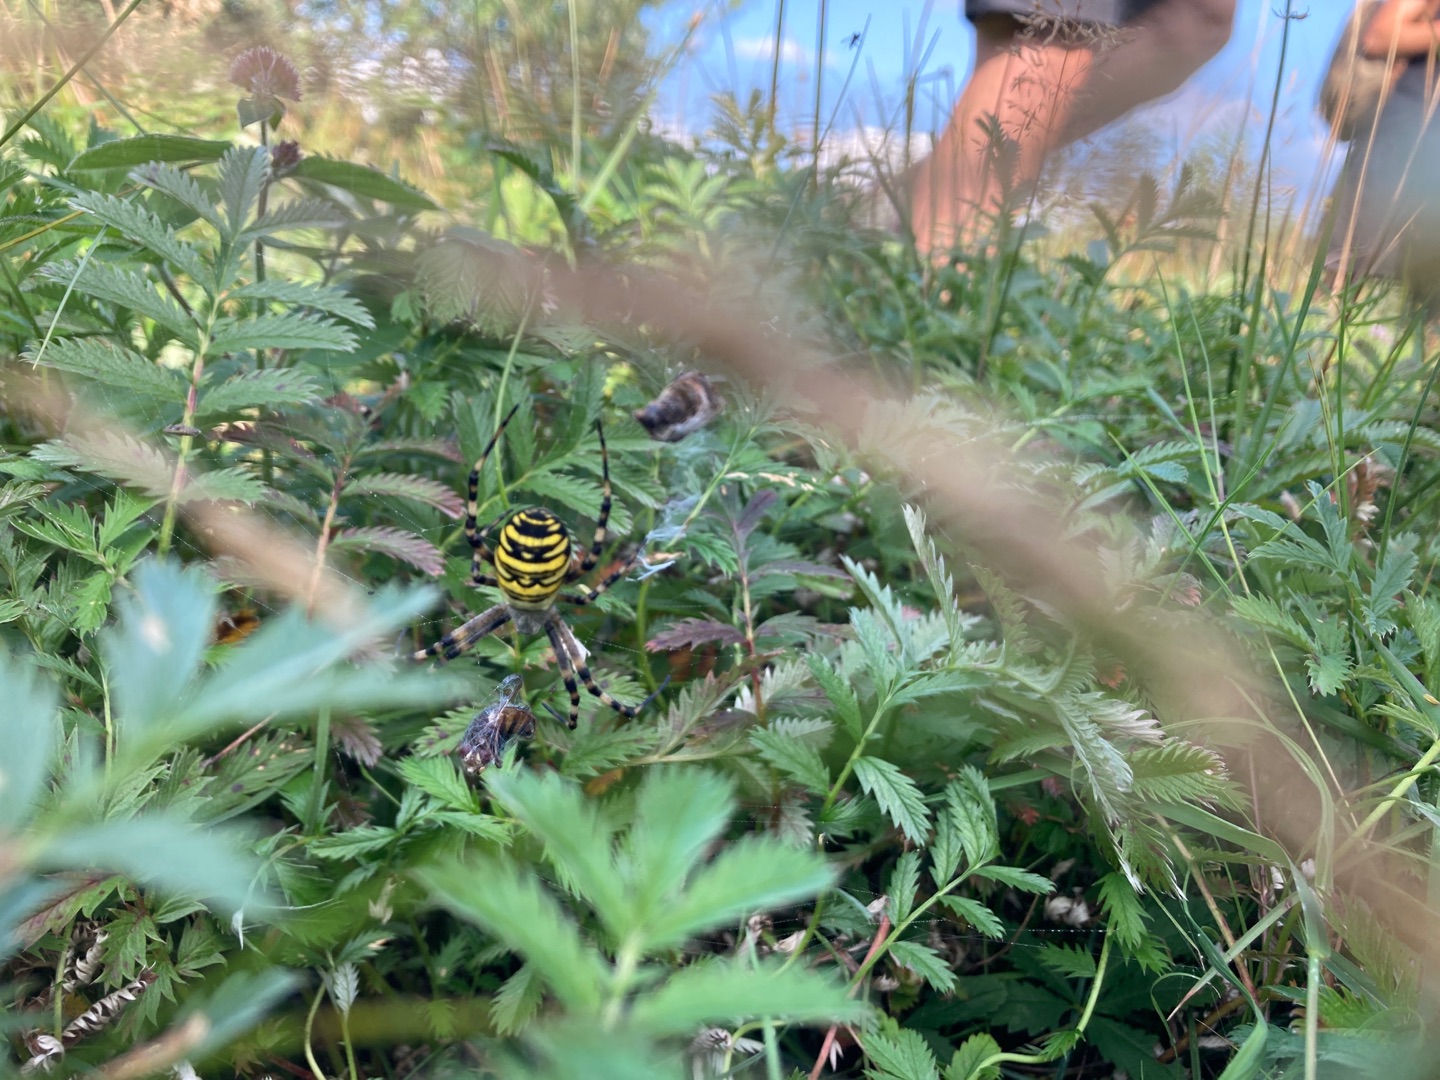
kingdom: Animalia
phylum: Arthropoda
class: Arachnida
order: Araneae
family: Araneidae
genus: Argiope
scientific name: Argiope bruennichi
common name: Hvepseedderkop
